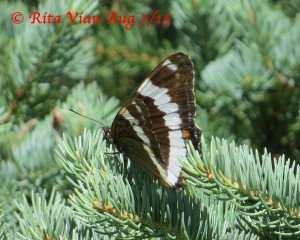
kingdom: Animalia
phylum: Arthropoda
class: Insecta
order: Lepidoptera
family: Nymphalidae
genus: Limenitis
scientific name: Limenitis arthemis
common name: Red-spotted Admiral
